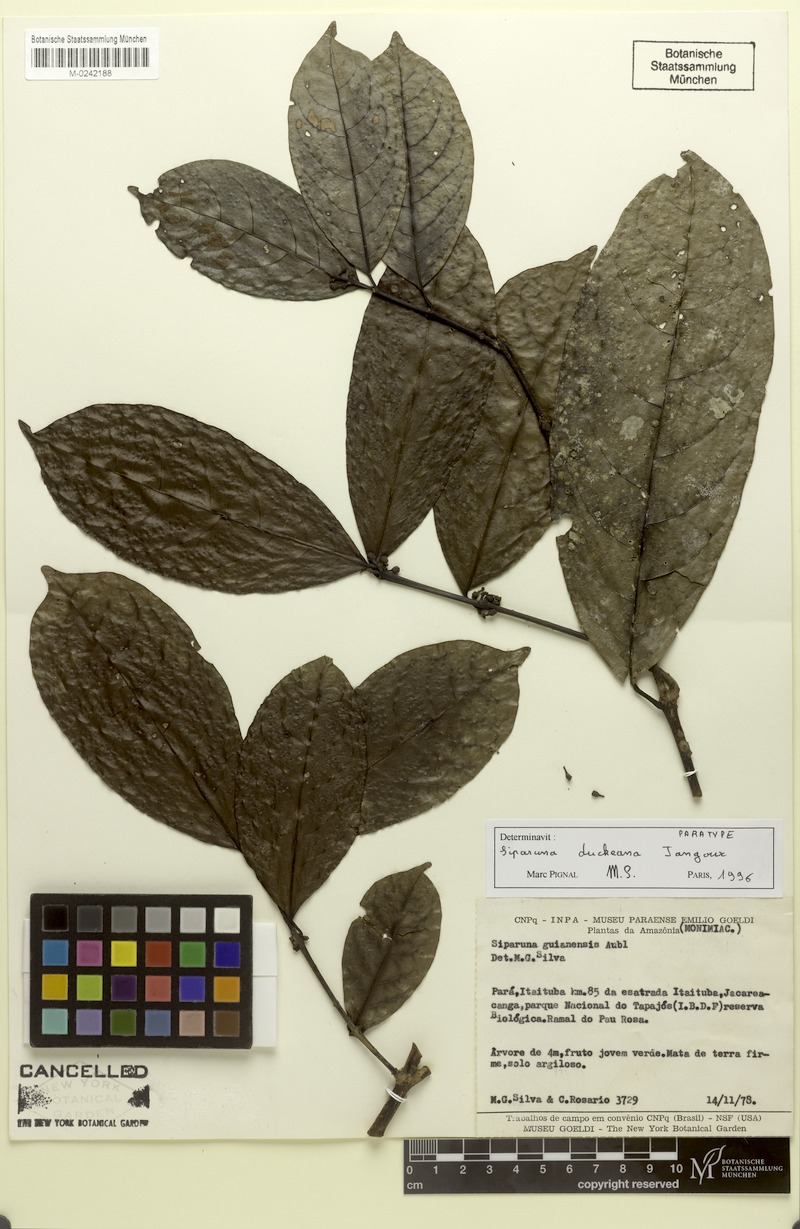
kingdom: Plantae
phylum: Tracheophyta
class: Magnoliopsida
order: Laurales
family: Siparunaceae
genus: Siparuna
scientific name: Siparuna guianensis
